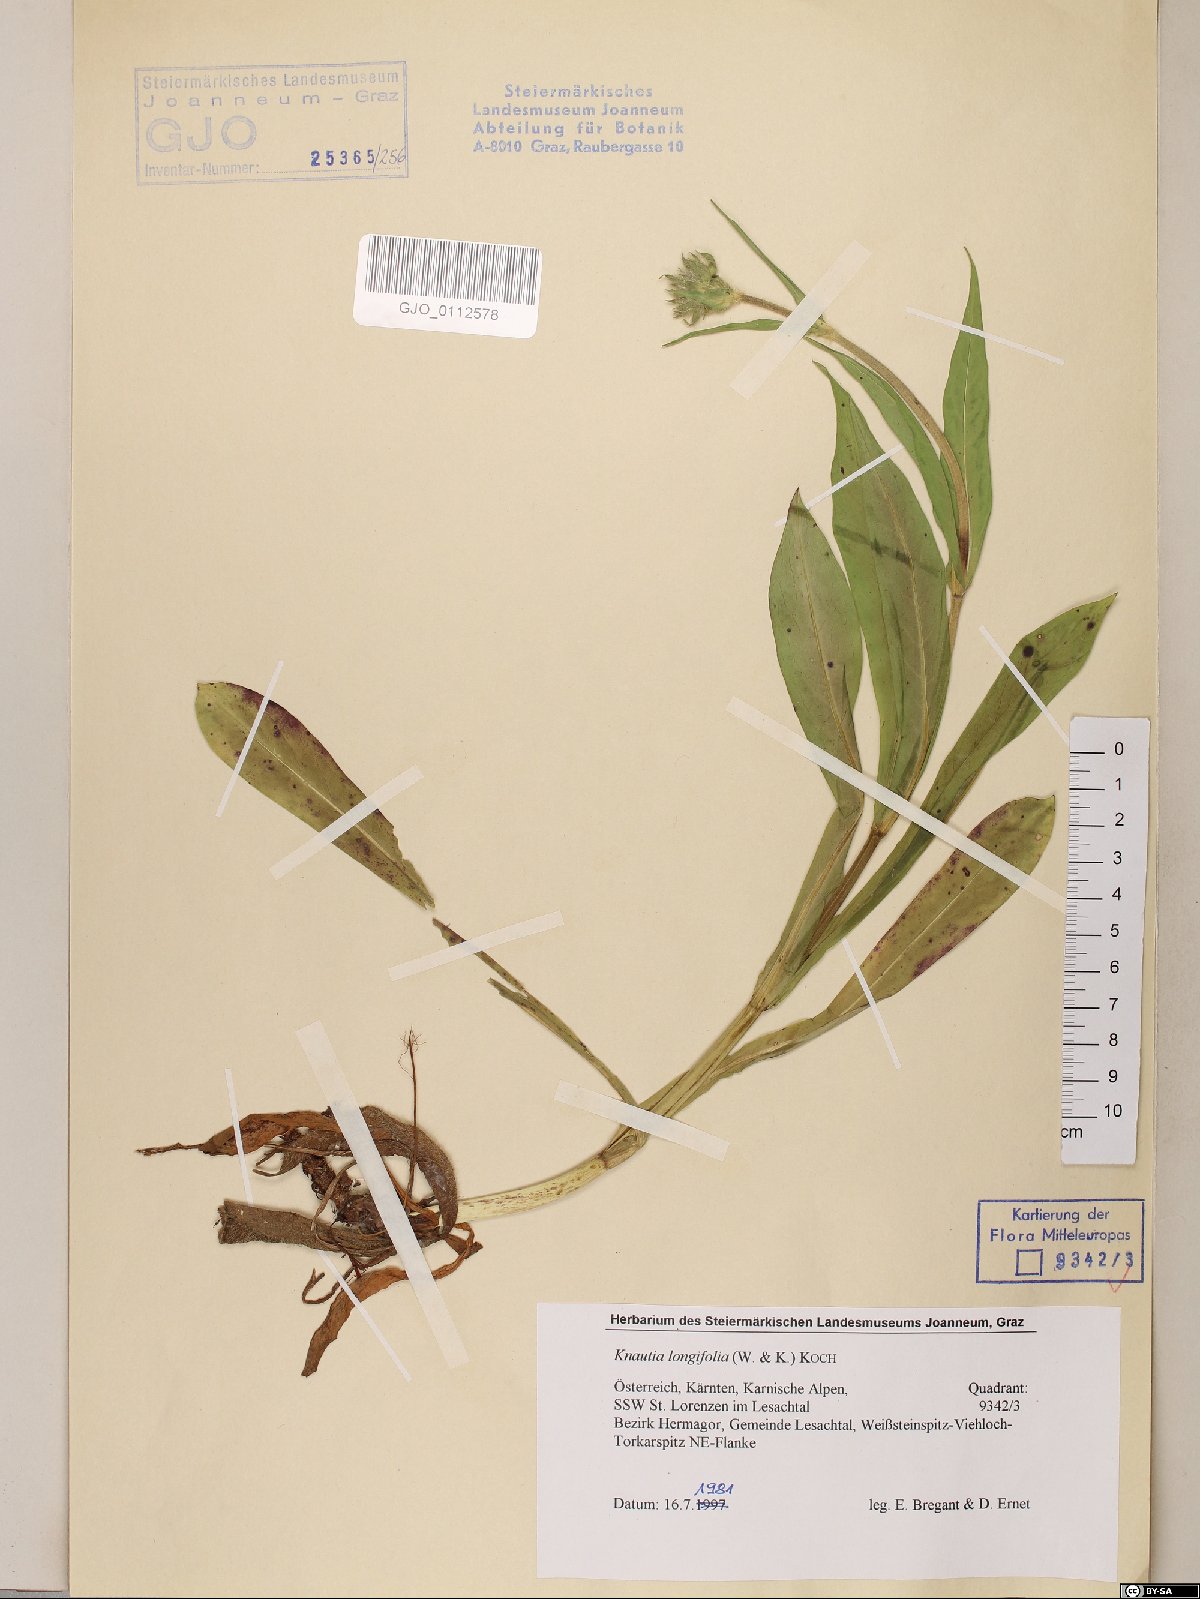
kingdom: Plantae
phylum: Tracheophyta
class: Magnoliopsida
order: Dipsacales
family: Caprifoliaceae
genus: Knautia
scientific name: Knautia longifolia
